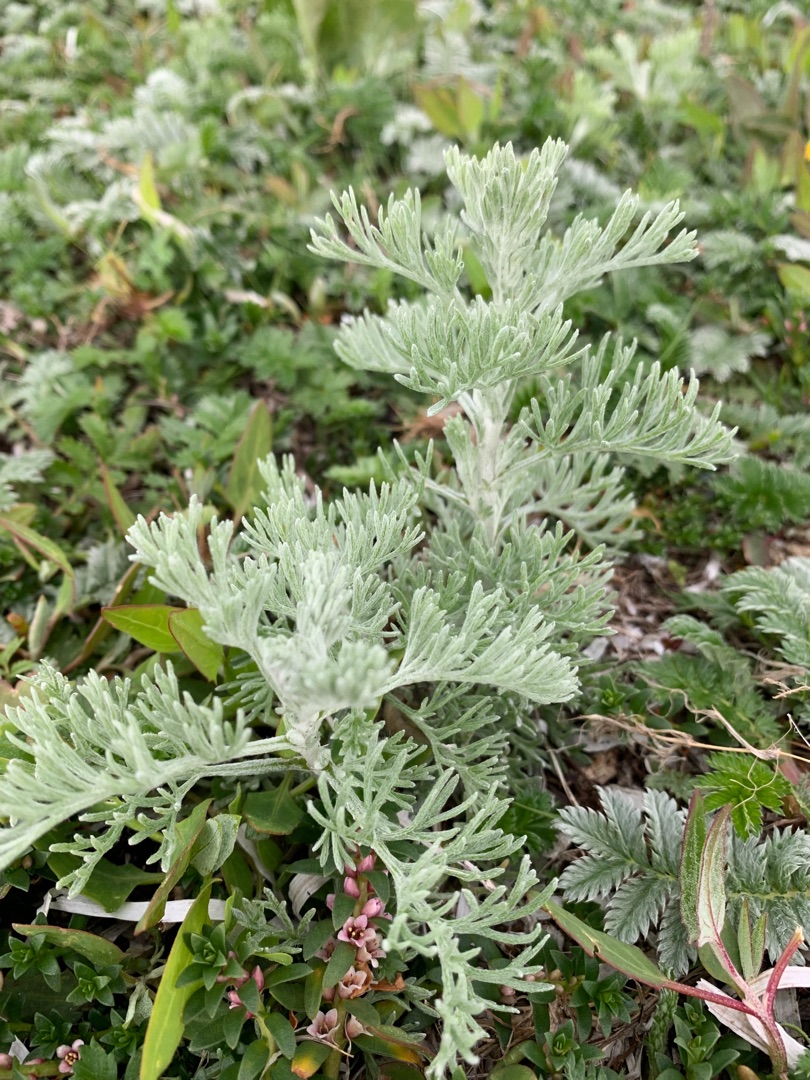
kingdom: Plantae
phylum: Tracheophyta
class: Magnoliopsida
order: Asterales
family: Asteraceae
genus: Artemisia
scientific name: Artemisia maritima
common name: Strandmalurt
